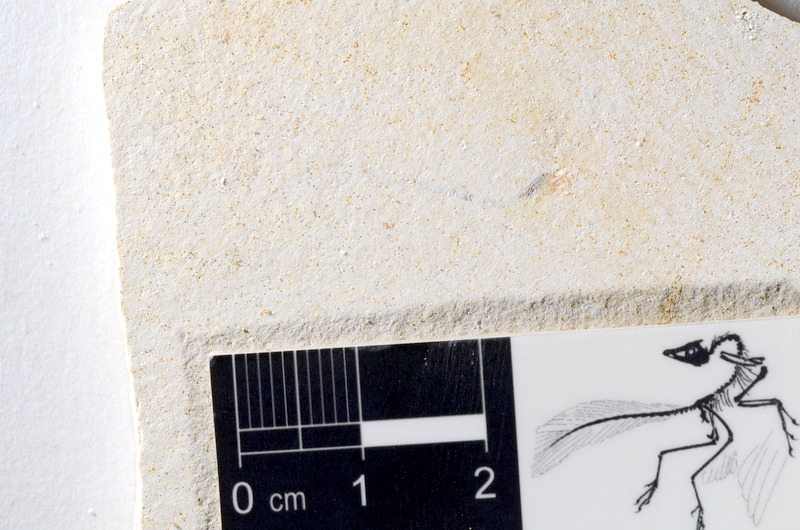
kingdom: Animalia
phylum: Chordata
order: Salmoniformes
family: Orthogonikleithridae
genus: Orthogonikleithrus
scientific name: Orthogonikleithrus hoelli
